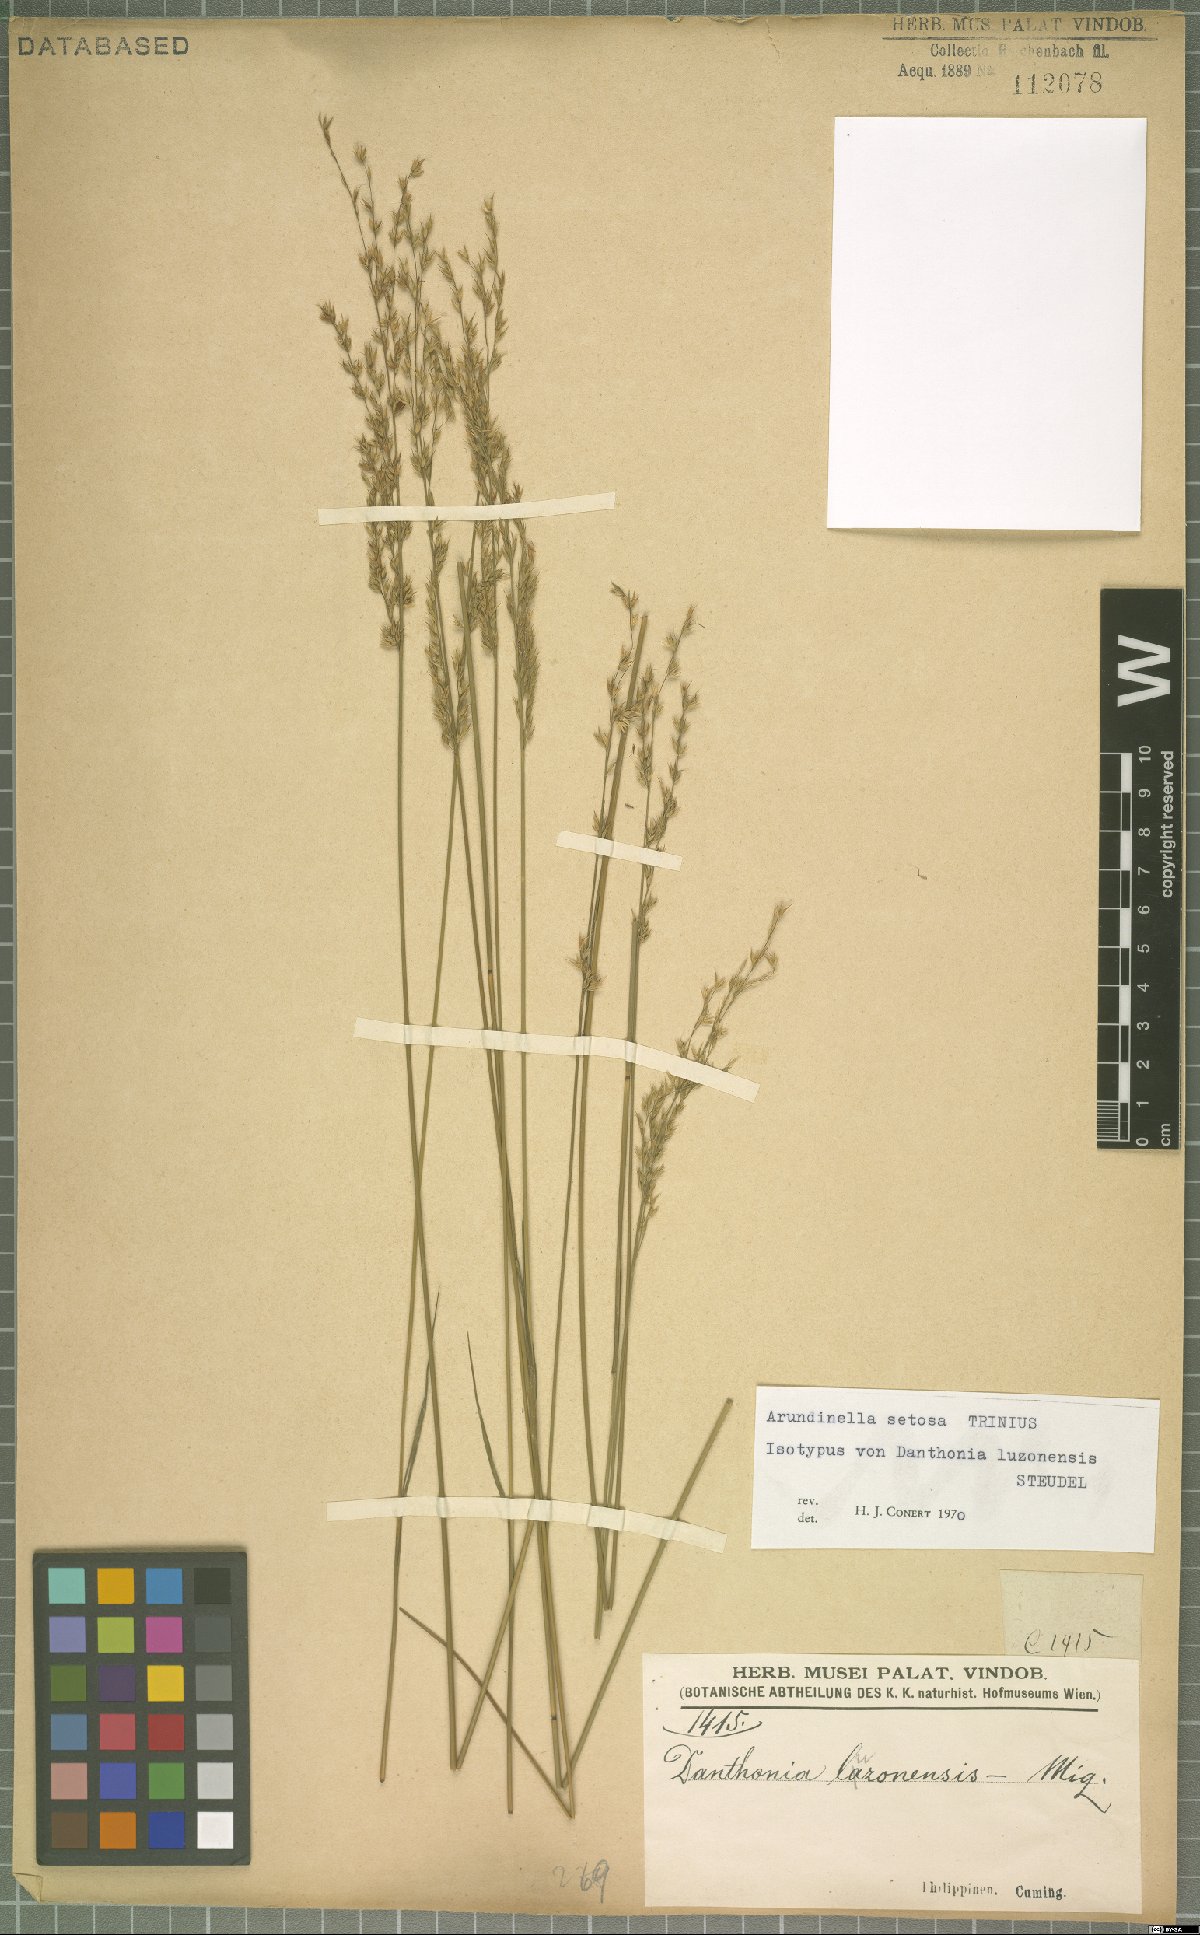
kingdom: Plantae
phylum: Tracheophyta
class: Liliopsida
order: Poales
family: Poaceae
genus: Arundinella
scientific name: Arundinella setosa
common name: Reed grass
